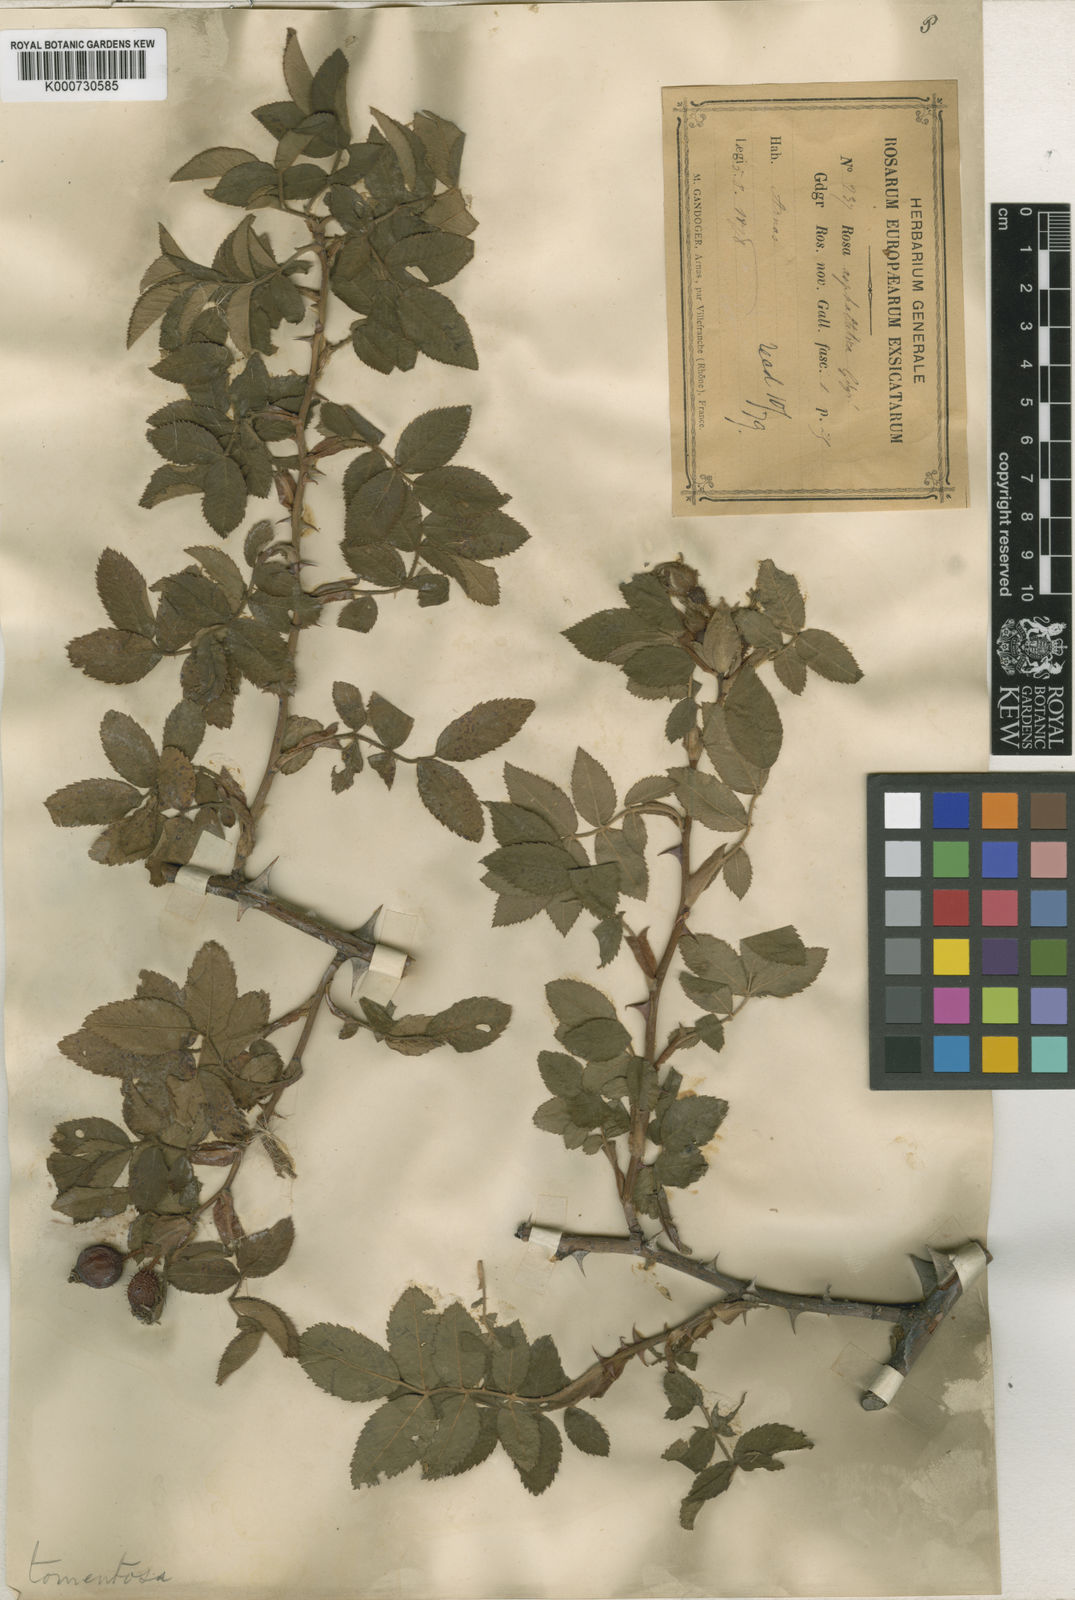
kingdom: Plantae
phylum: Tracheophyta
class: Magnoliopsida
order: Rosales
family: Rosaceae
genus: Rosa
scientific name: Rosa tomentosa
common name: Downy rose
